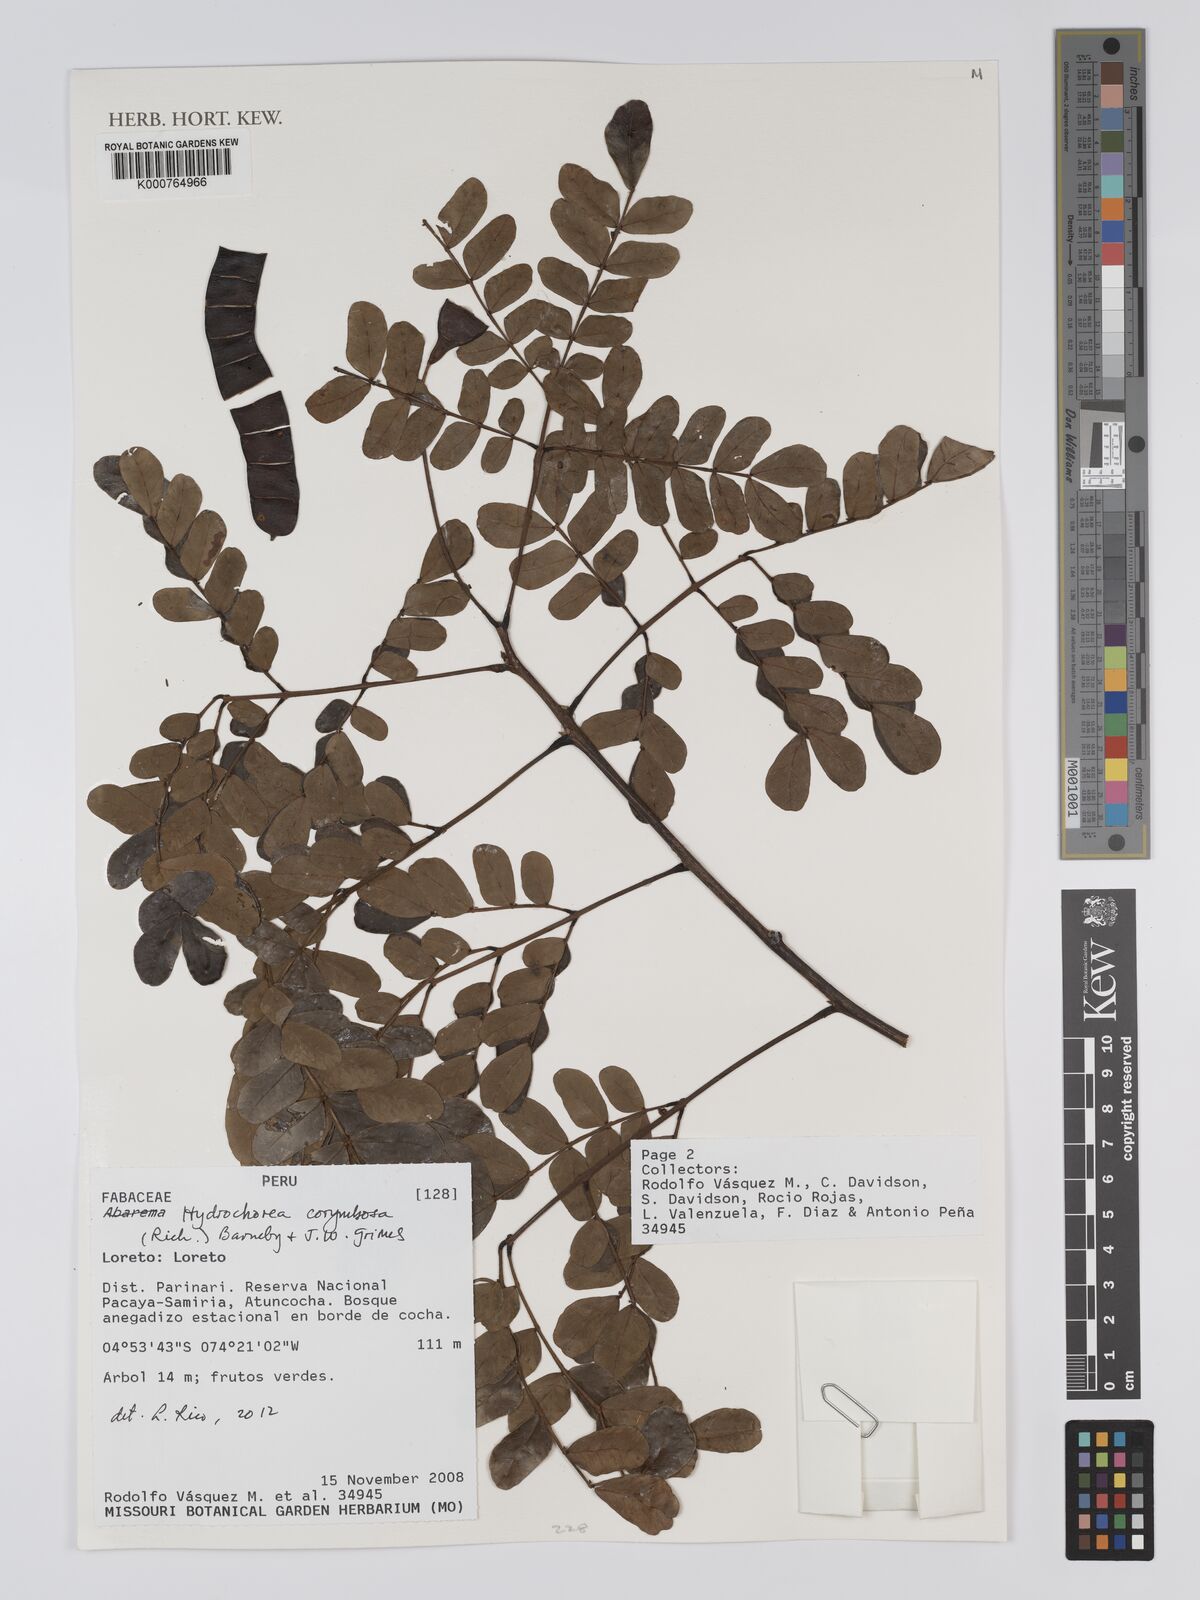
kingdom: Plantae
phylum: Tracheophyta
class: Magnoliopsida
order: Fabales
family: Fabaceae
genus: Hydrochorea
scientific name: Hydrochorea corymbosa
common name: Swamp manariballi
